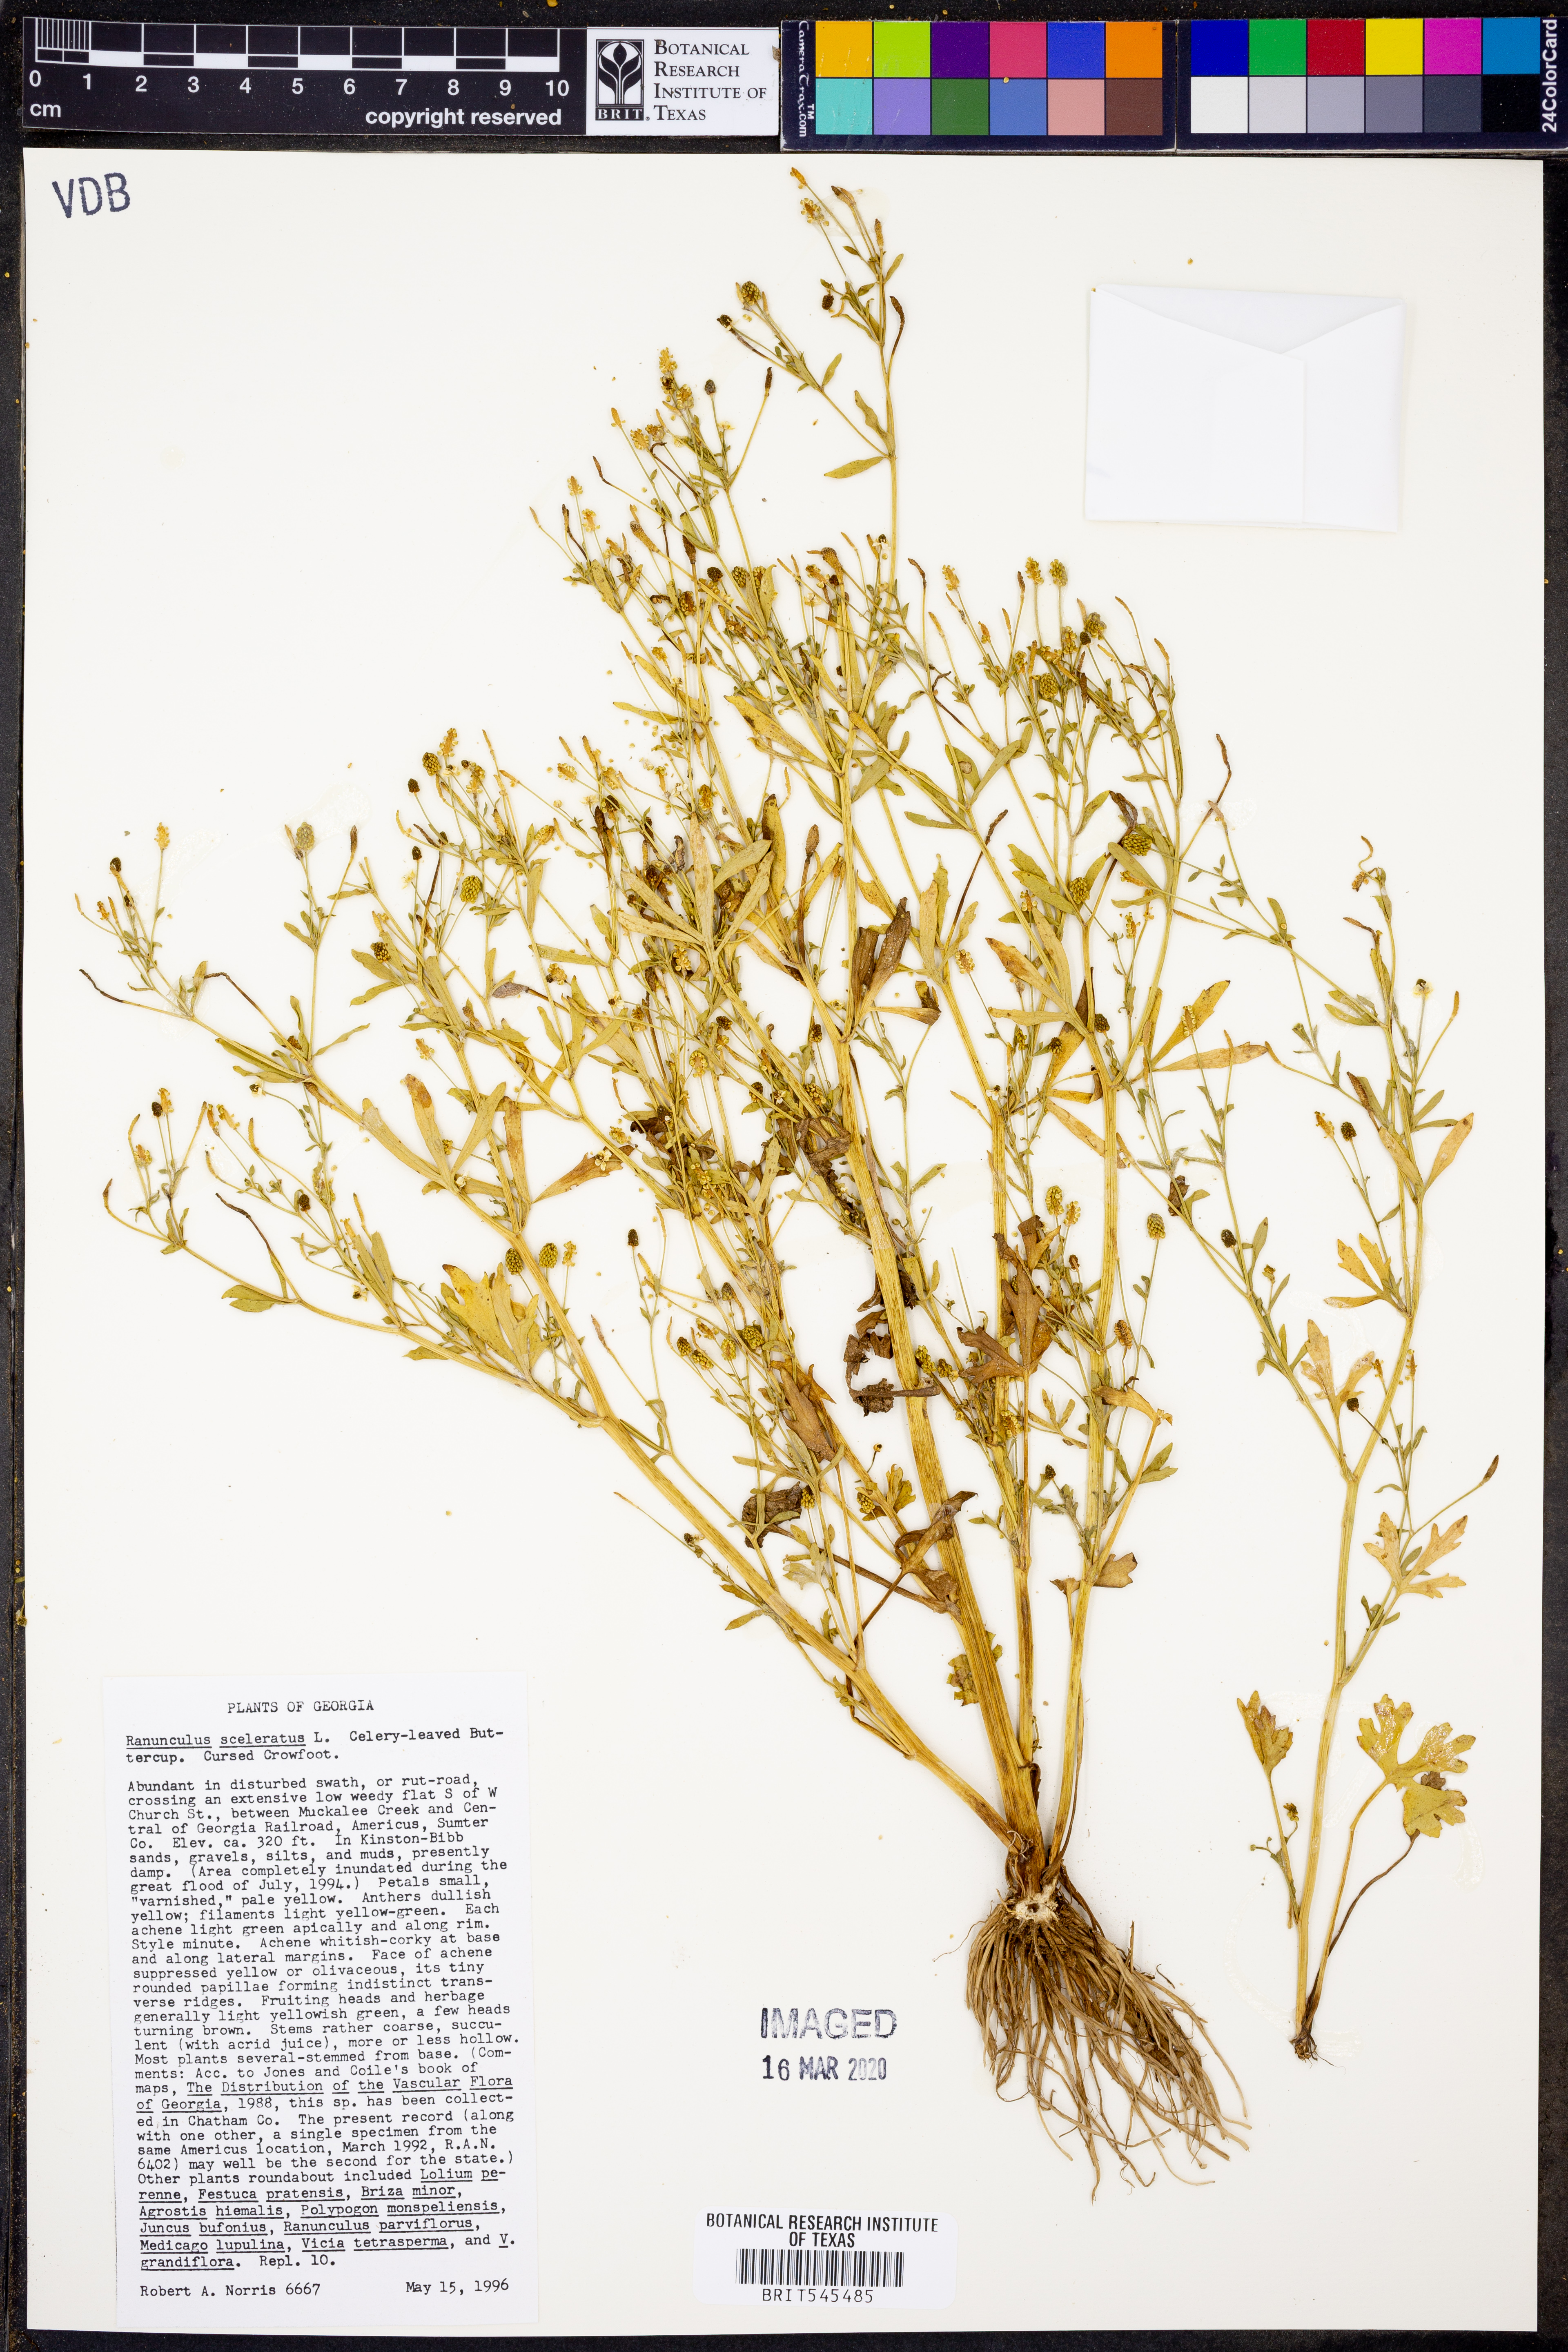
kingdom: Plantae
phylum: Tracheophyta
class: Magnoliopsida
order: Ranunculales
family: Ranunculaceae
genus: Ranunculus
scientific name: Ranunculus sceleratus
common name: Celery-leaved buttercup
